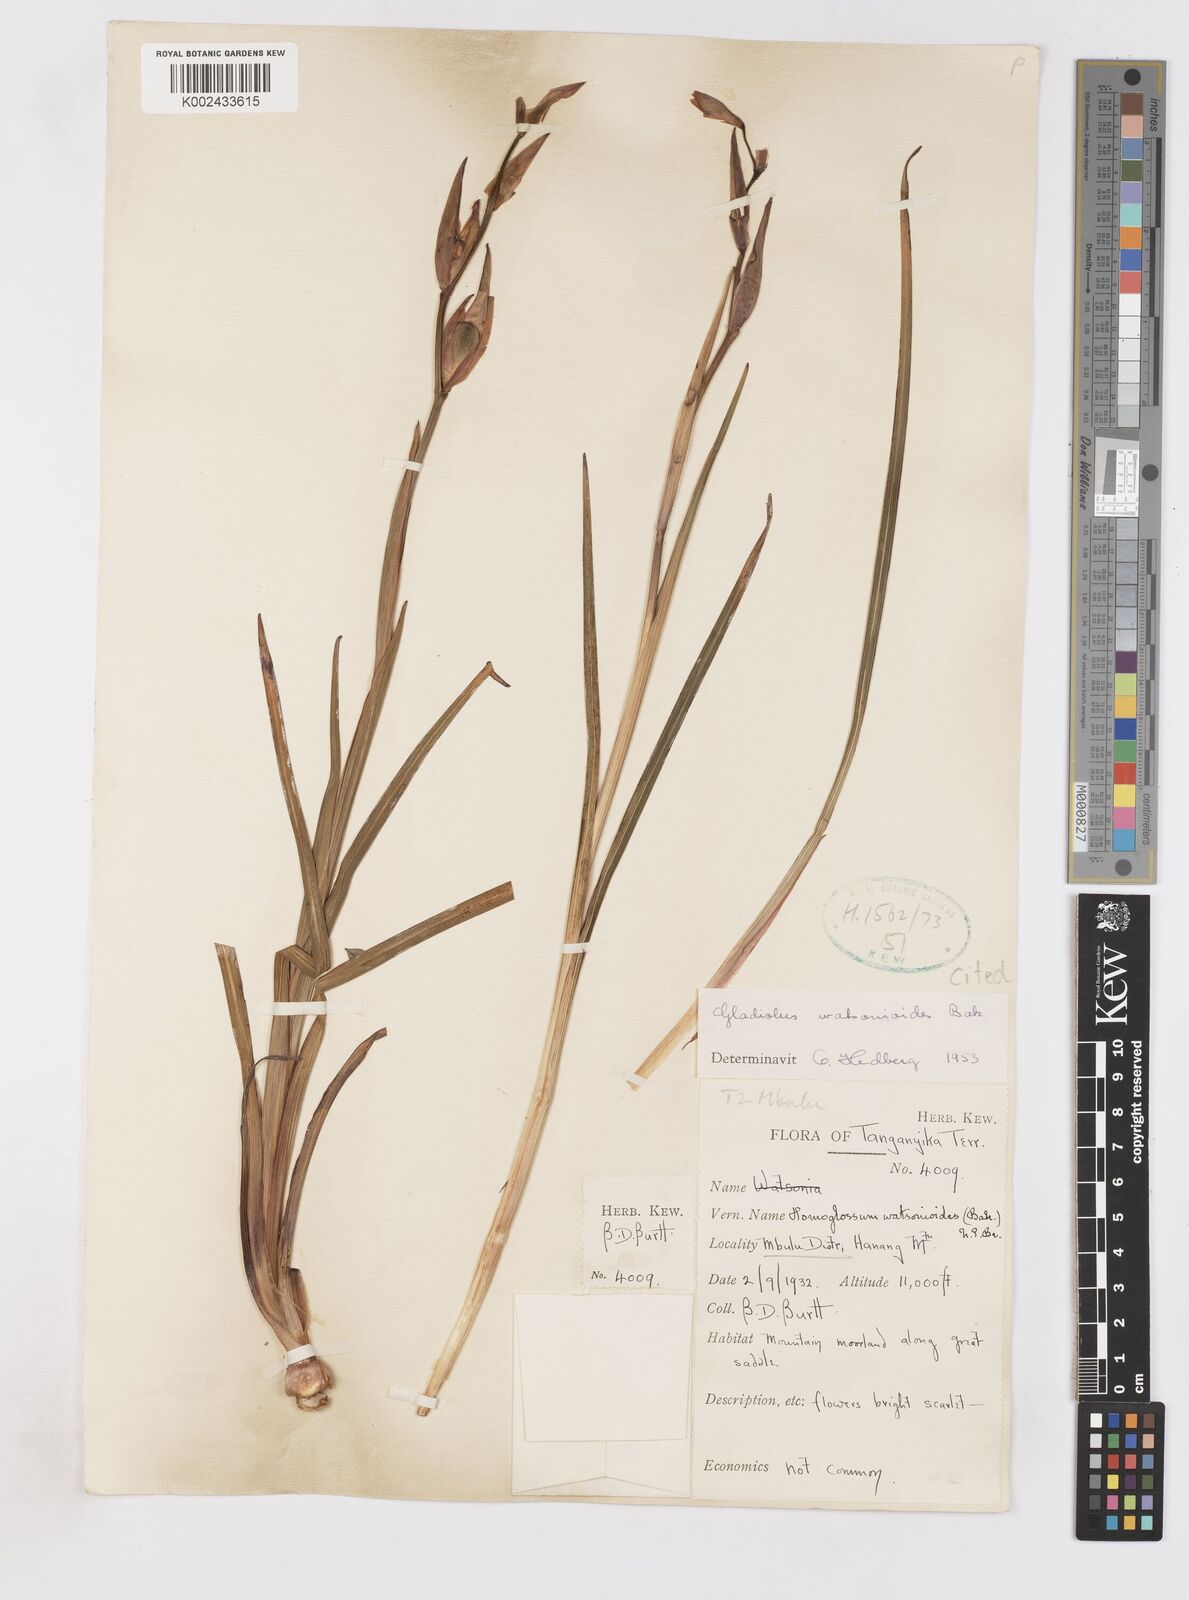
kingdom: Plantae
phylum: Tracheophyta
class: Liliopsida
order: Asparagales
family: Iridaceae
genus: Gladiolus
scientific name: Gladiolus watsonioides
